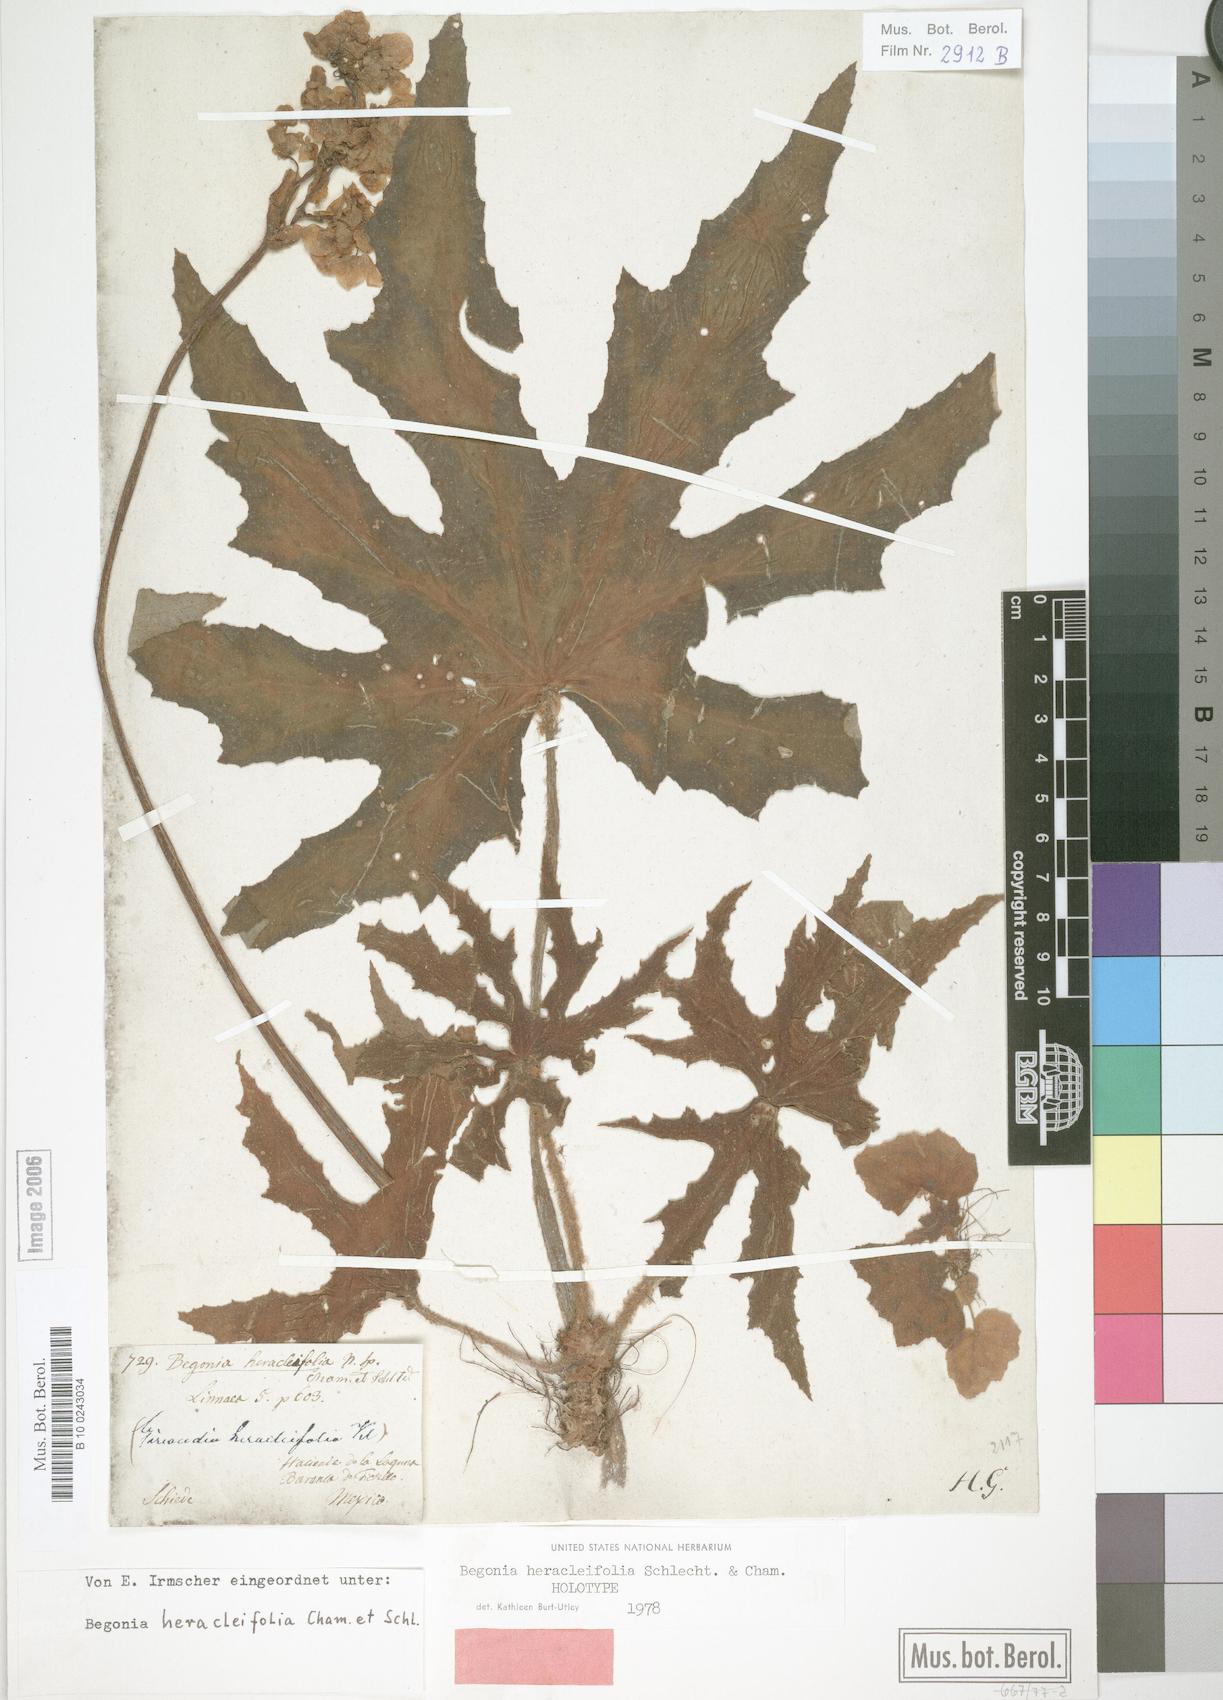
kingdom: Plantae
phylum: Tracheophyta
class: Magnoliopsida
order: Cucurbitales
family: Begoniaceae
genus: Begonia
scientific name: Begonia heracleifolia
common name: Star begonia
